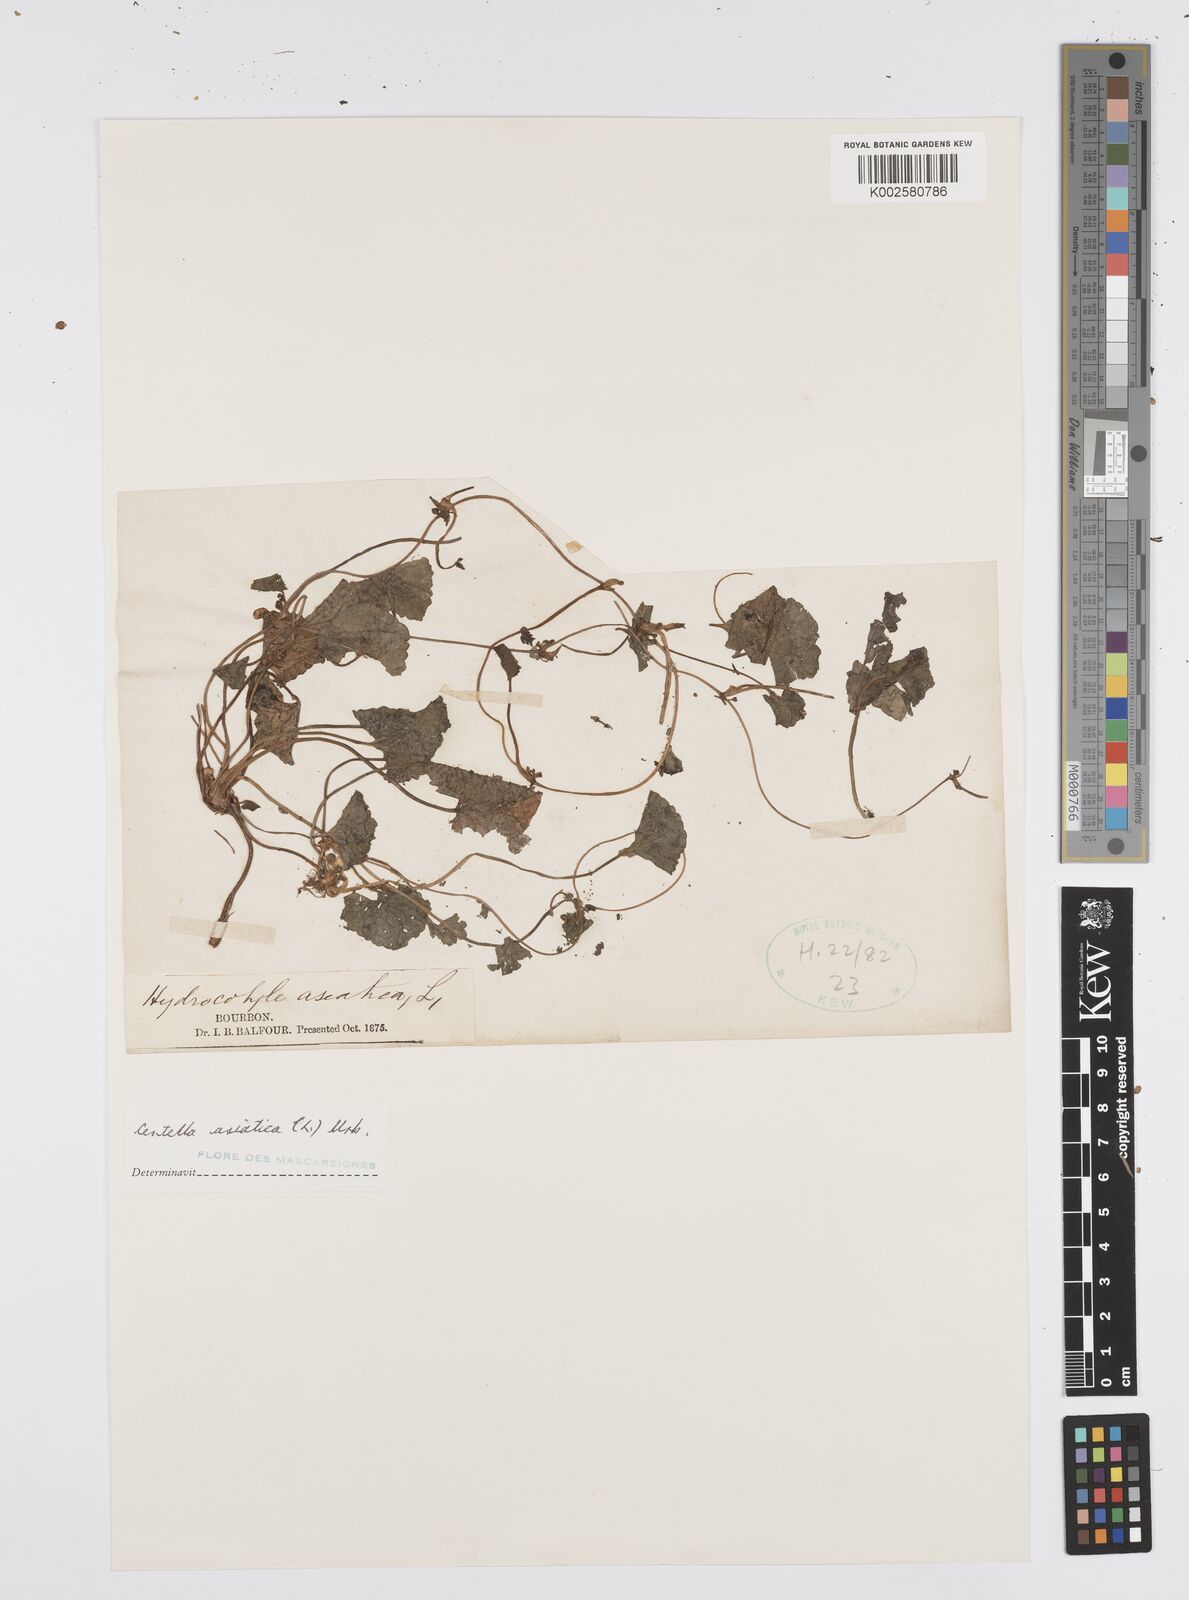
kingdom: Plantae
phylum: Tracheophyta
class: Magnoliopsida
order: Apiales
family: Apiaceae
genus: Centella
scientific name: Centella asiatica
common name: Spadeleaf
